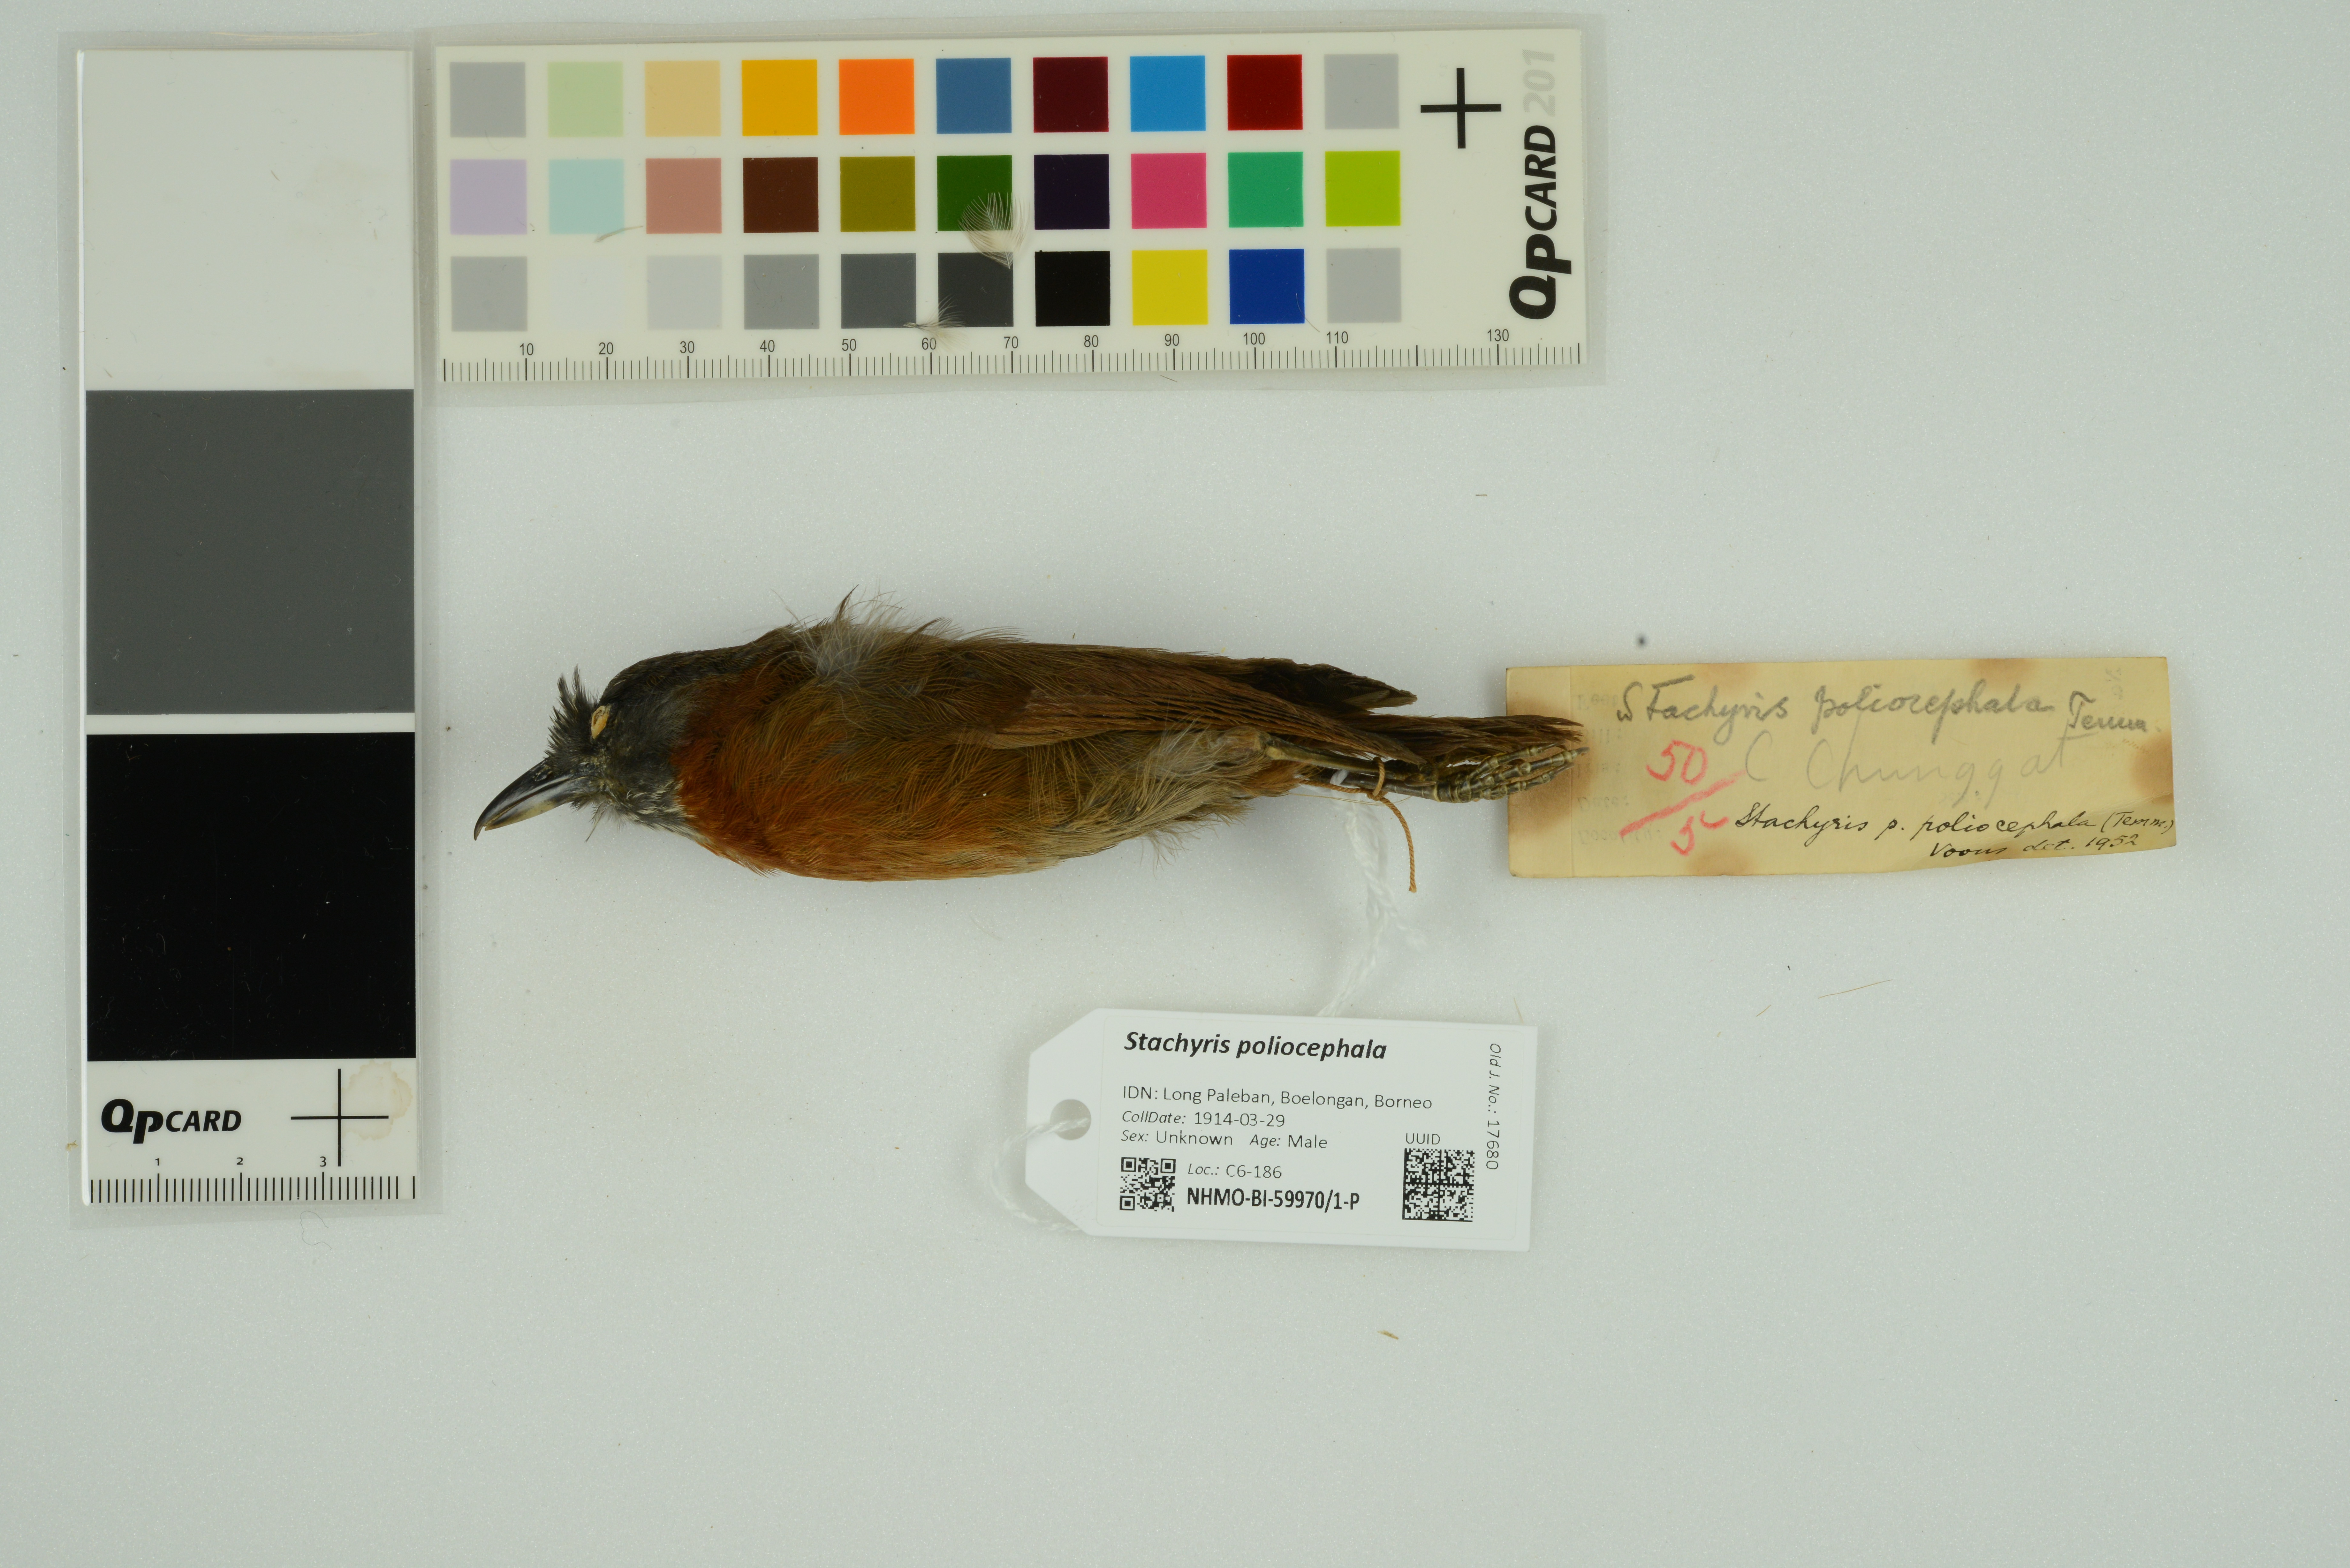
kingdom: Animalia
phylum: Chordata
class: Aves
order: Passeriformes
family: Timaliidae
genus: Stachyris
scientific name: Stachyris poliocephala
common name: Grey-headed babbler
